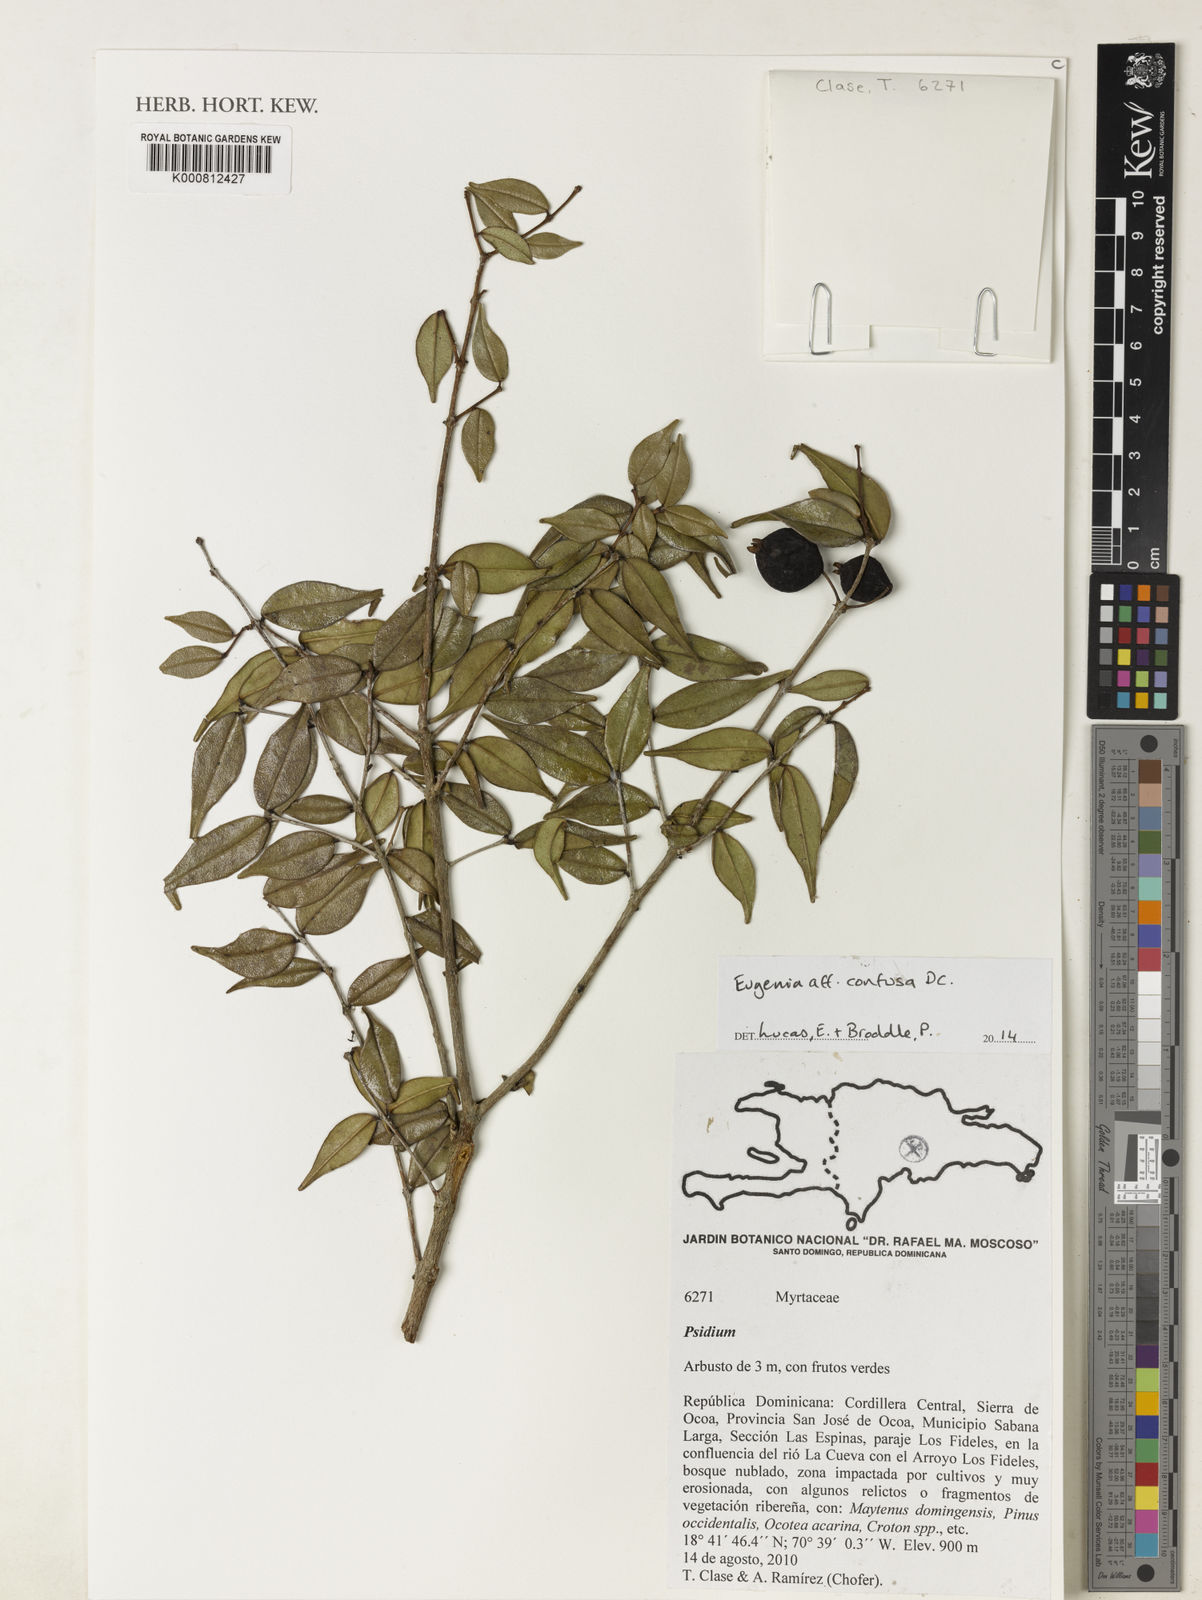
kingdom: Plantae
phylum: Tracheophyta
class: Magnoliopsida
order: Myrtales
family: Myrtaceae
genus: Eugenia
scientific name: Eugenia confusa
